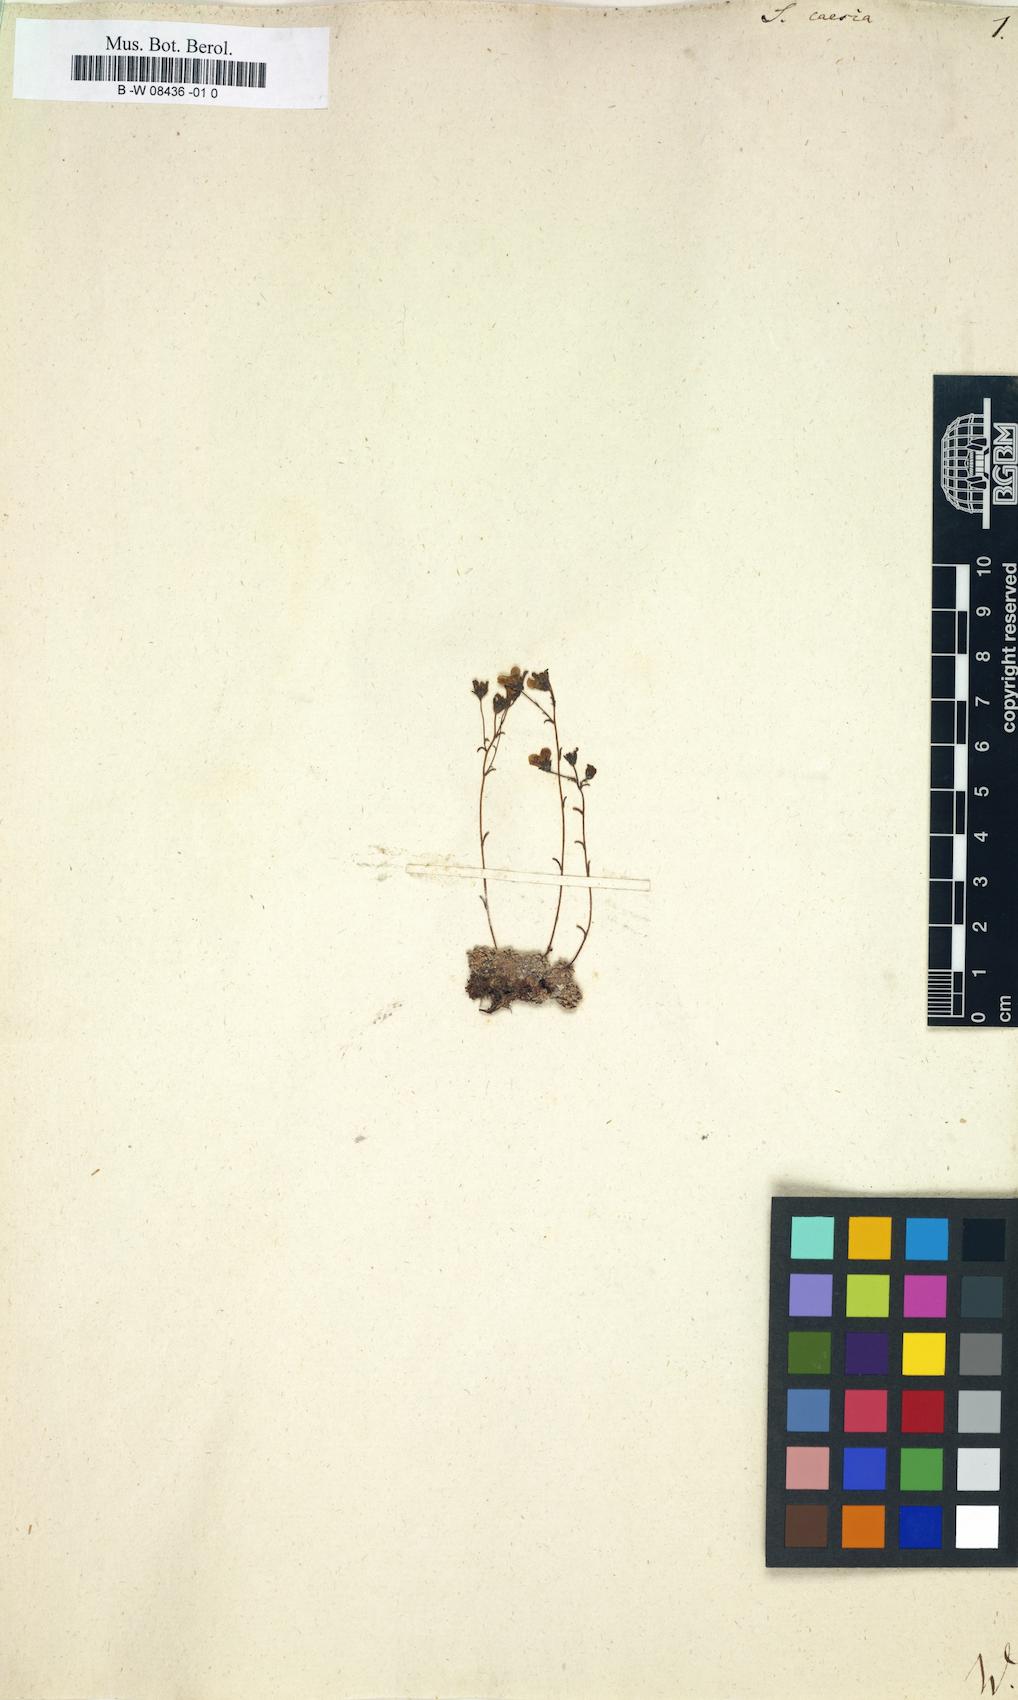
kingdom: Plantae
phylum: Tracheophyta
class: Magnoliopsida
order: Saxifragales
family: Saxifragaceae
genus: Saxifraga
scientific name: Saxifraga caesia
